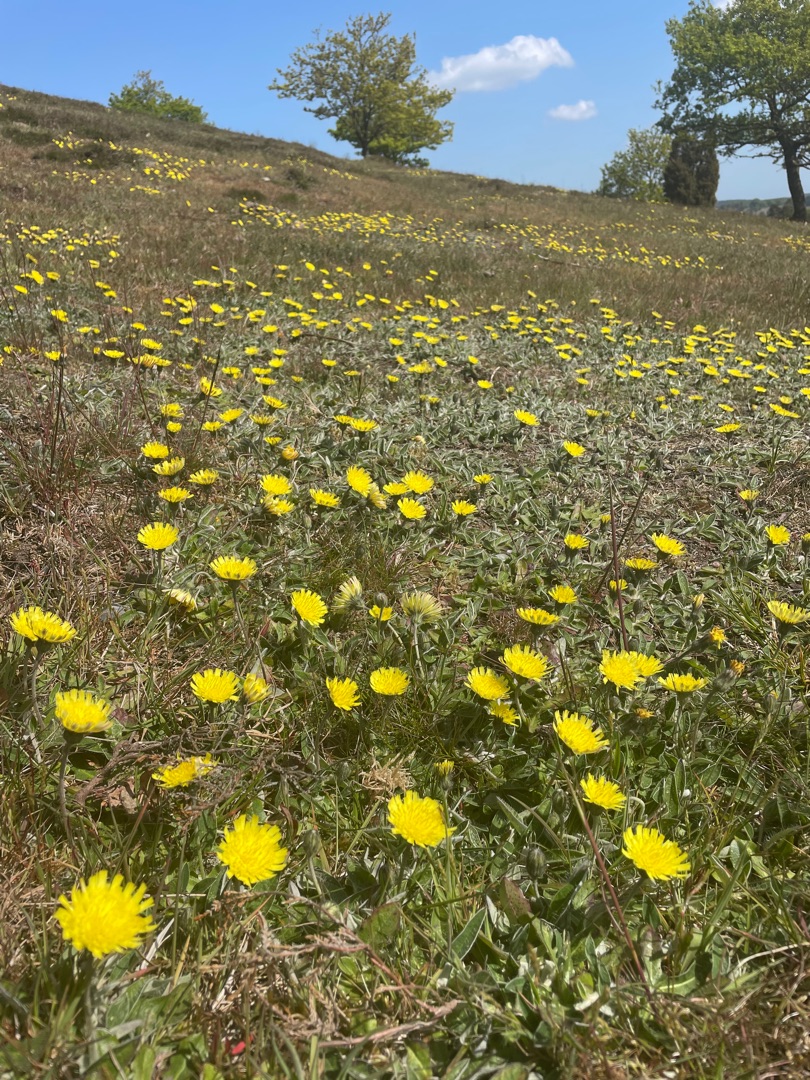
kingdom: Plantae
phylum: Tracheophyta
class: Magnoliopsida
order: Asterales
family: Asteraceae
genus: Pilosella
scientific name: Pilosella officinarum
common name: Håret høgeurt
